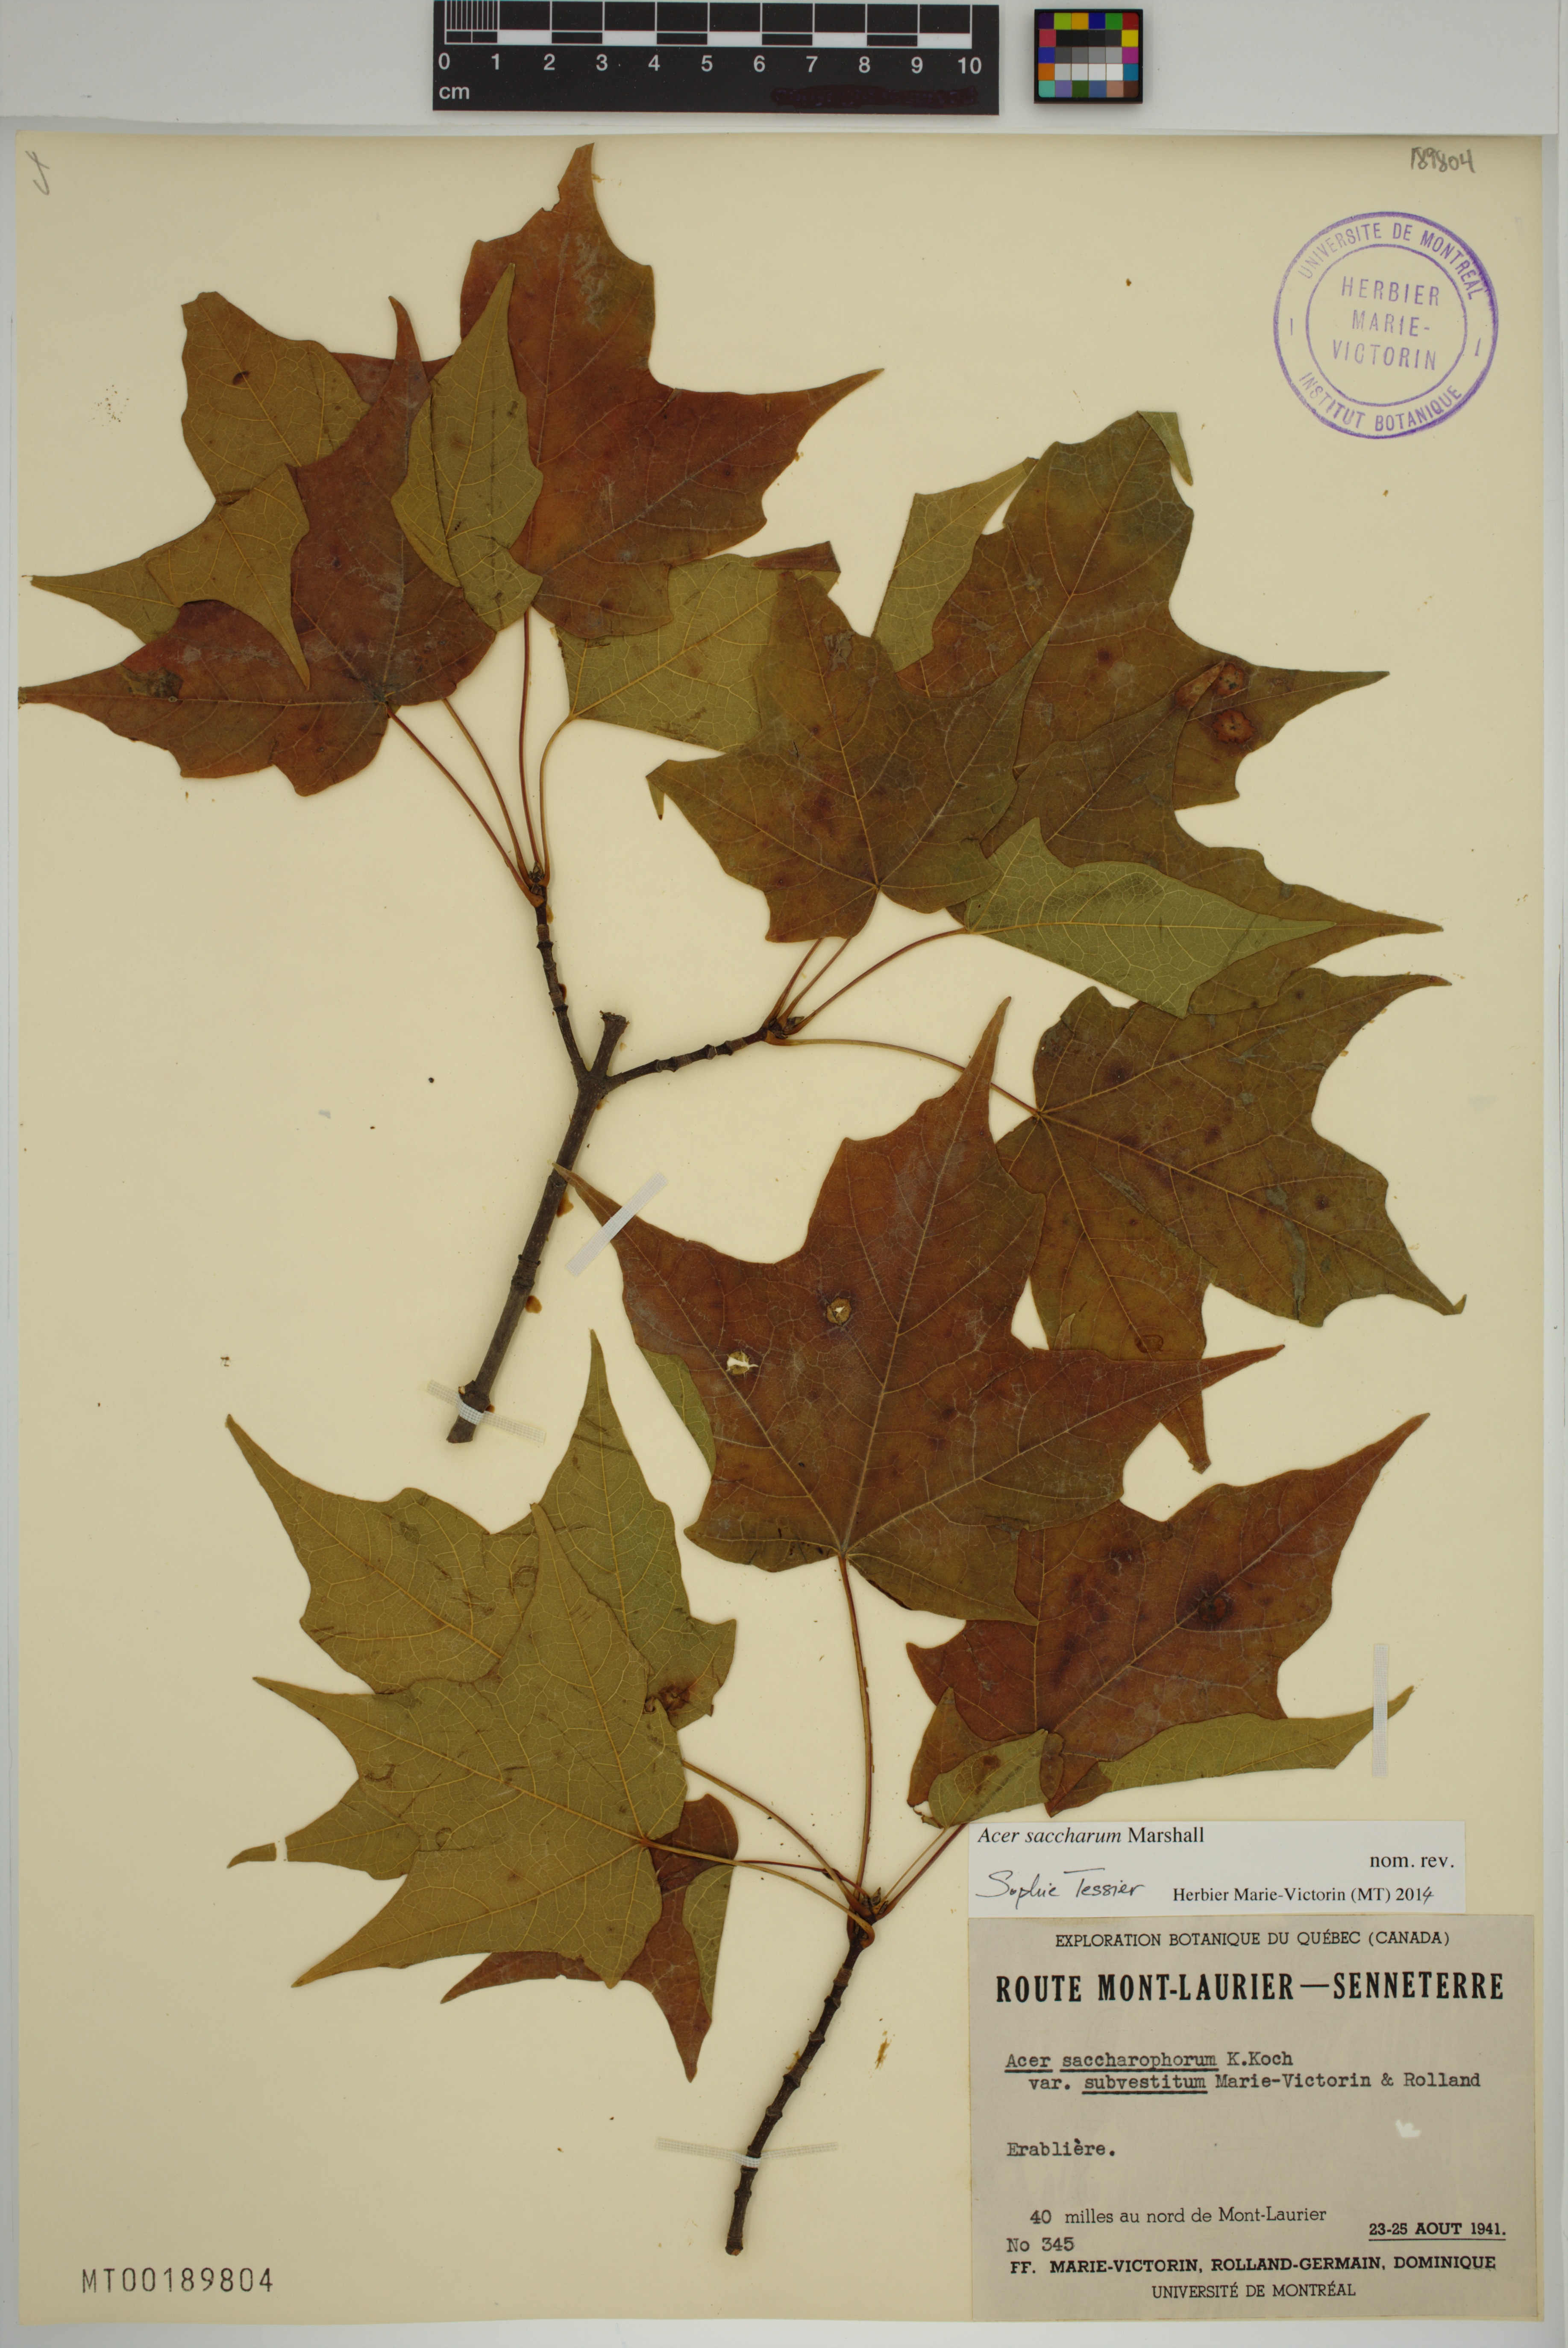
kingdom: Plantae
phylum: Tracheophyta
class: Magnoliopsida
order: Sapindales
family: Sapindaceae
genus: Acer
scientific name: Acer saccharum
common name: Sugar maple
